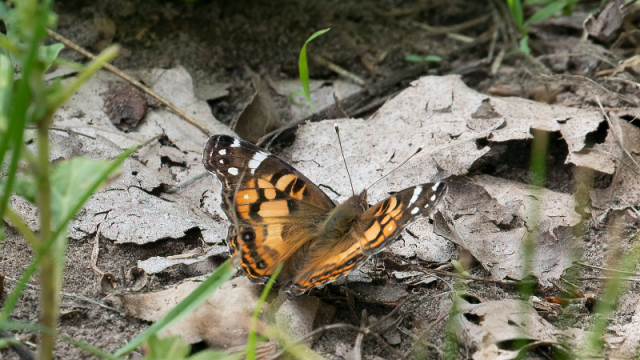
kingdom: Animalia
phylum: Arthropoda
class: Insecta
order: Lepidoptera
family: Nymphalidae
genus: Vanessa
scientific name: Vanessa virginiensis
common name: American Lady
